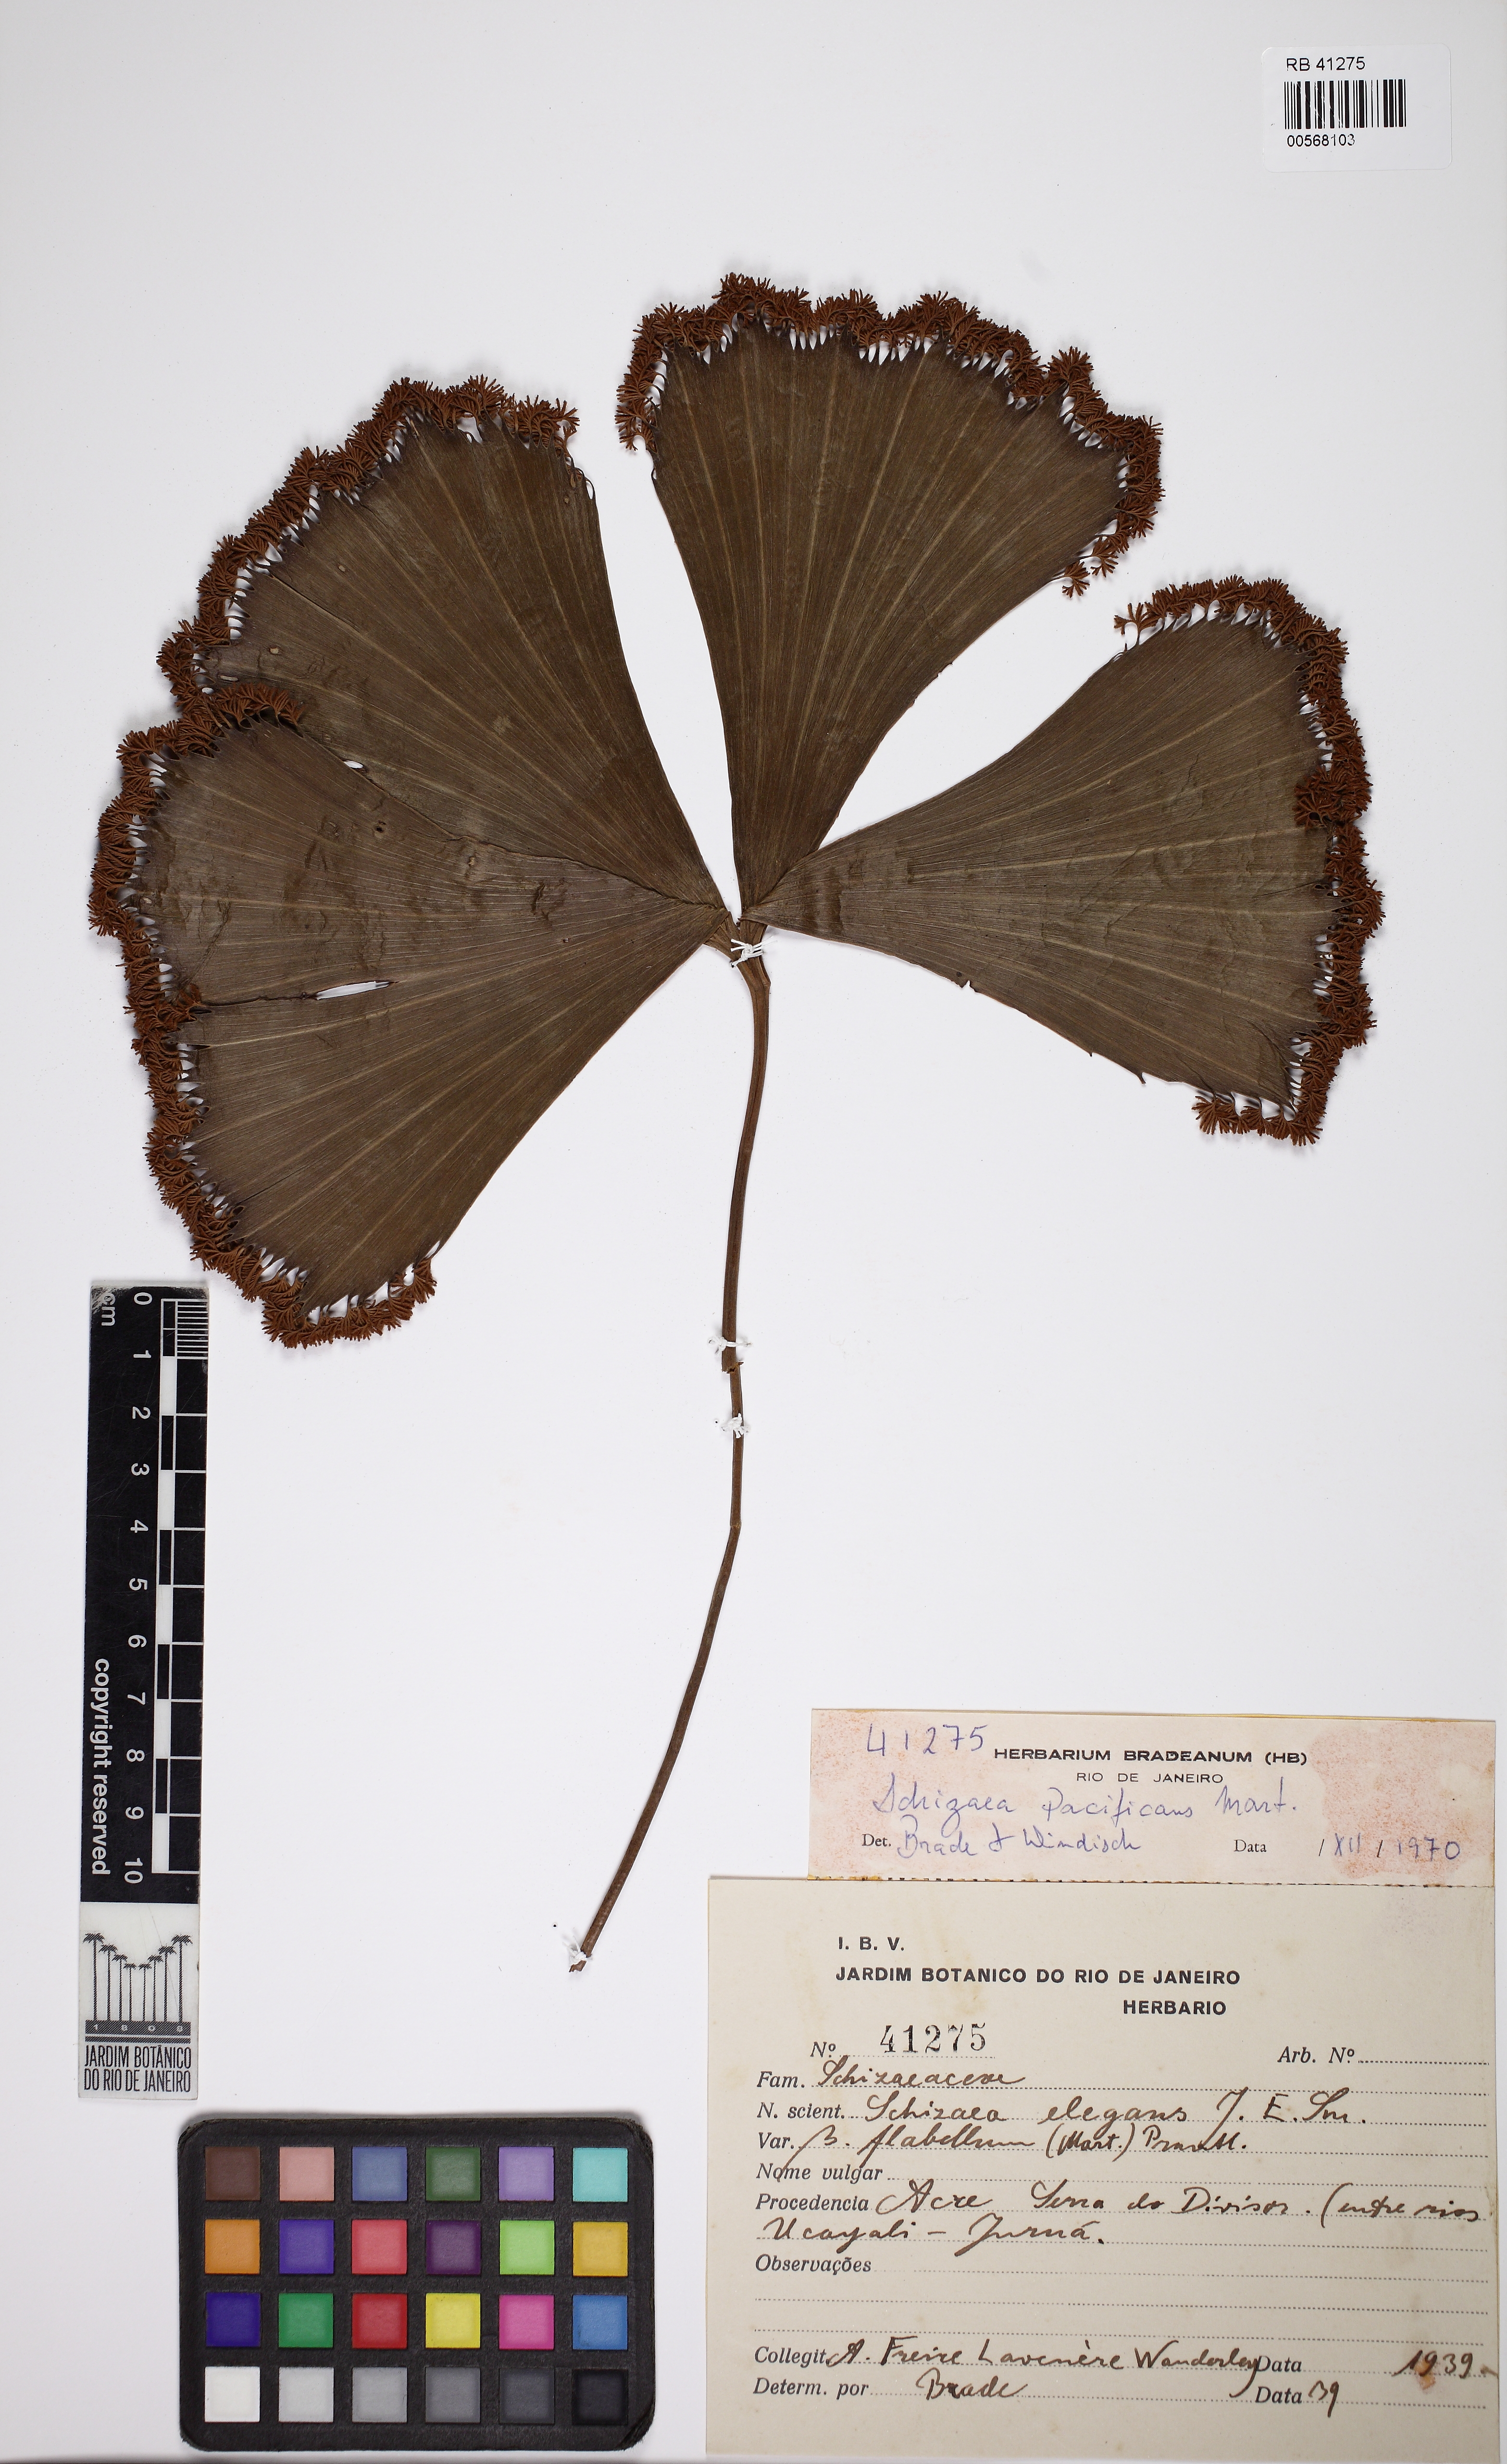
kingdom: Plantae
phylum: Tracheophyta
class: Polypodiopsida
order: Schizaeales
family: Schizaeaceae
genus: Schizaea
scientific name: Schizaea elegans
